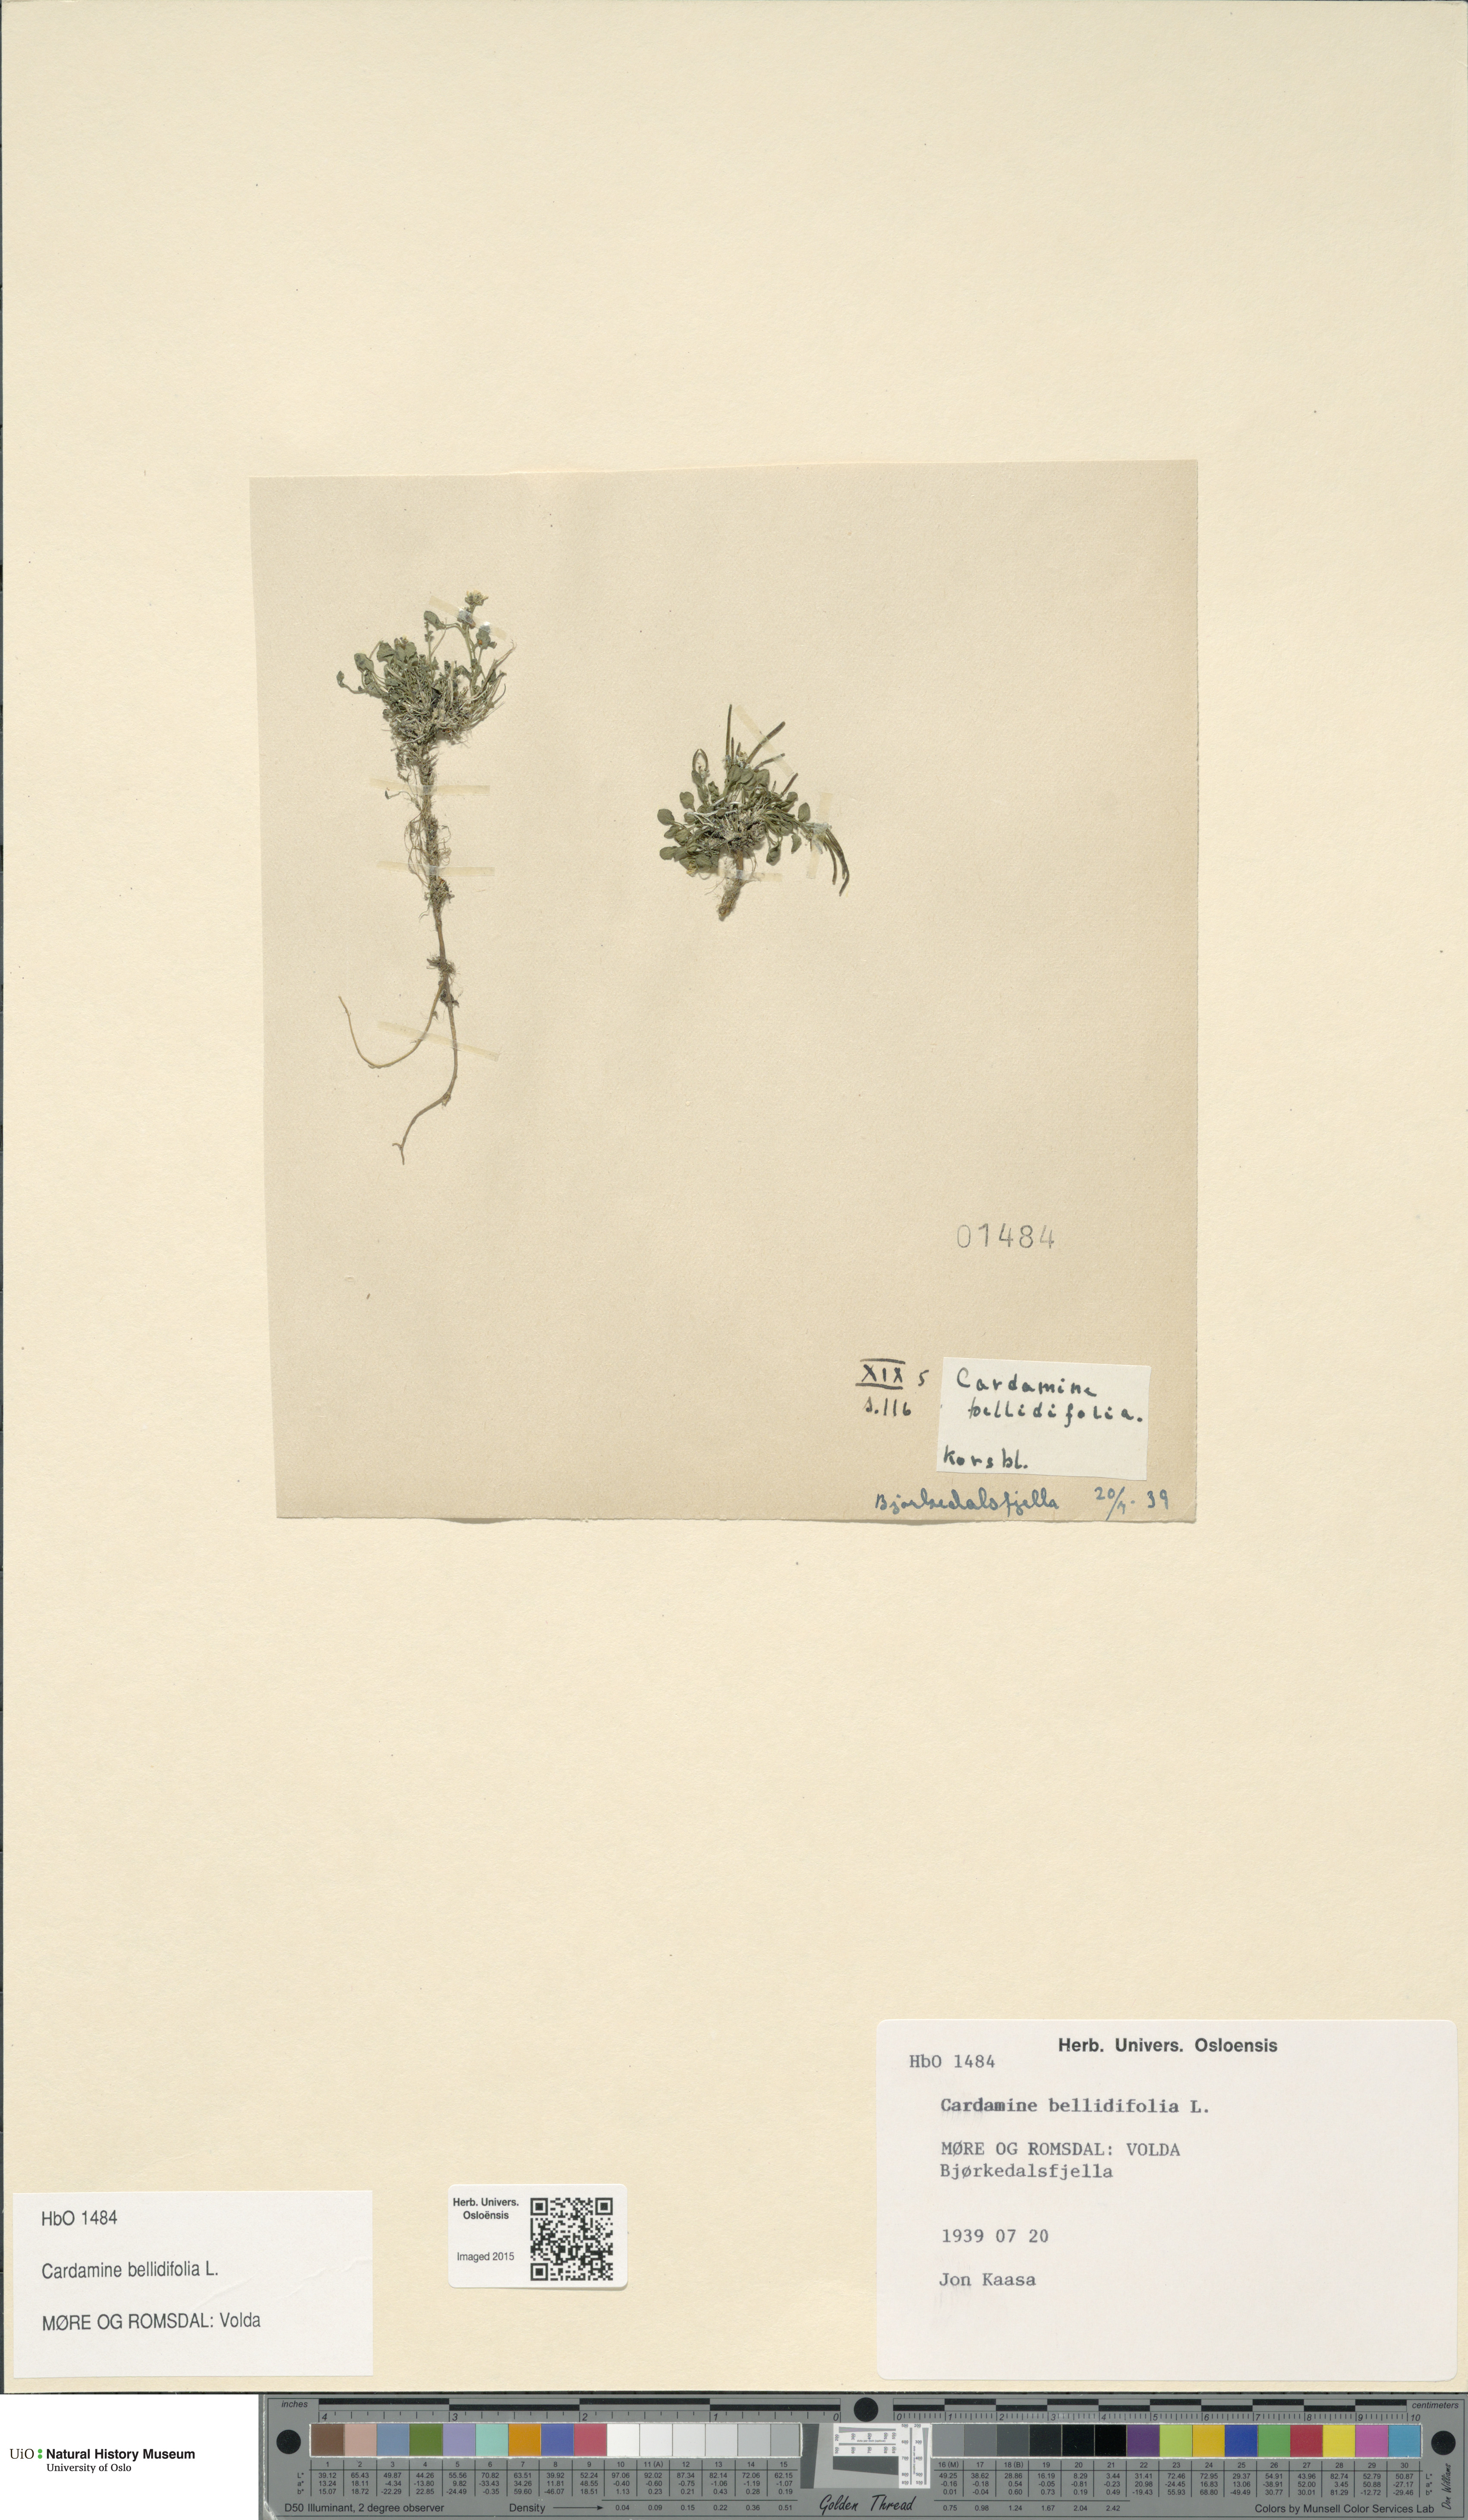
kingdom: Plantae
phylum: Tracheophyta
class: Magnoliopsida
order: Brassicales
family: Brassicaceae
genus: Cardamine
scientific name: Cardamine bellidifolia
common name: Alpine bittercress
